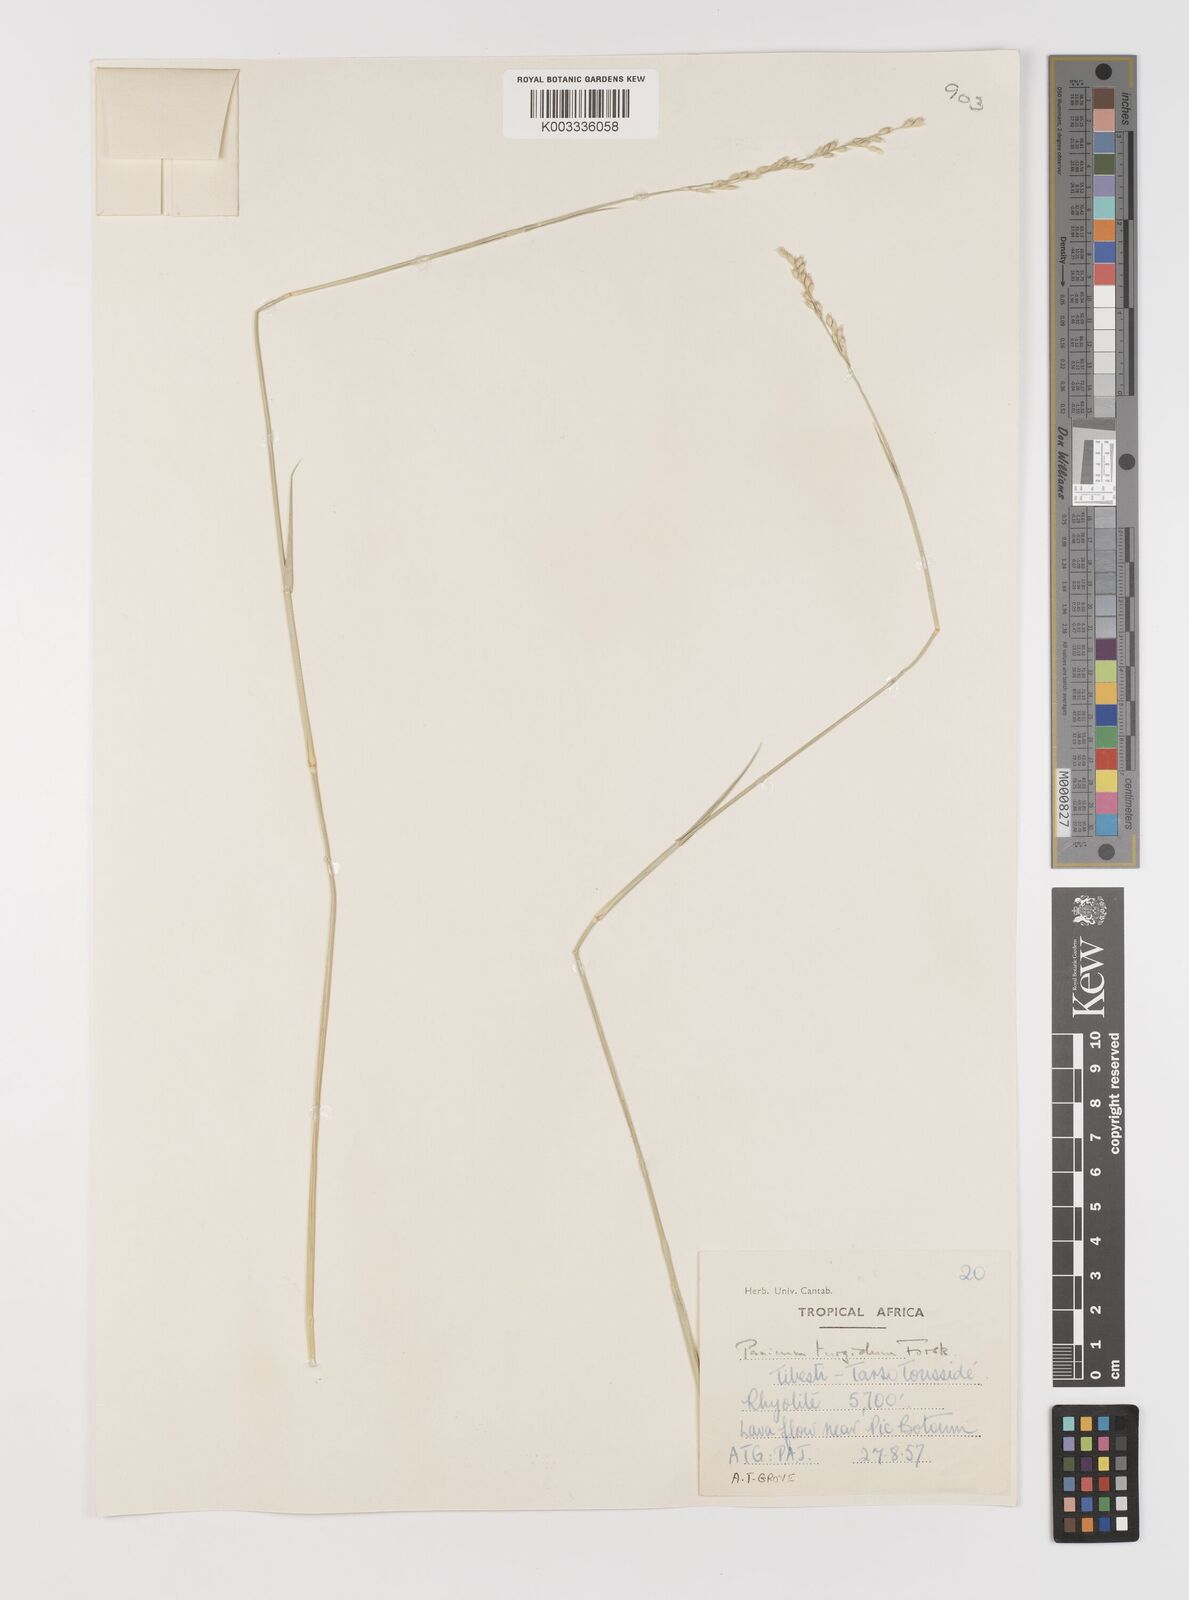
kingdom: Plantae
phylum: Tracheophyta
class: Liliopsida
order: Poales
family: Poaceae
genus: Panicum
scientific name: Panicum turgidum
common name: Desert grass
